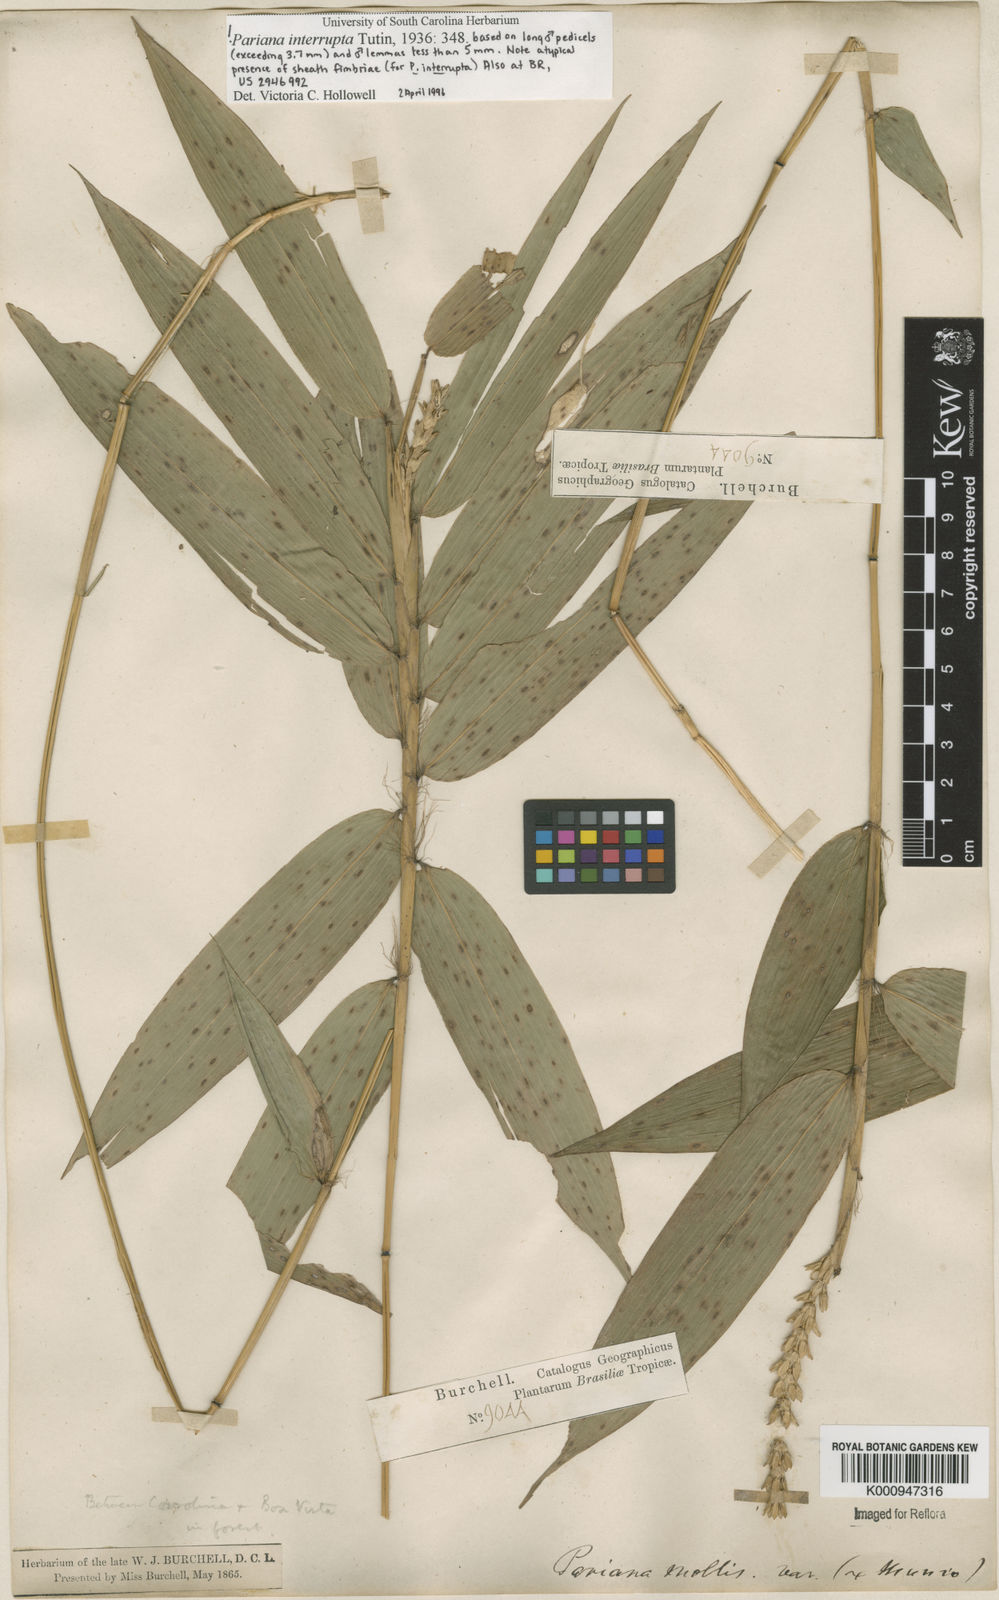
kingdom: Plantae
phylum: Tracheophyta
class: Liliopsida
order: Poales
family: Poaceae
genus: Pariana
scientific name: Pariana interrupta
